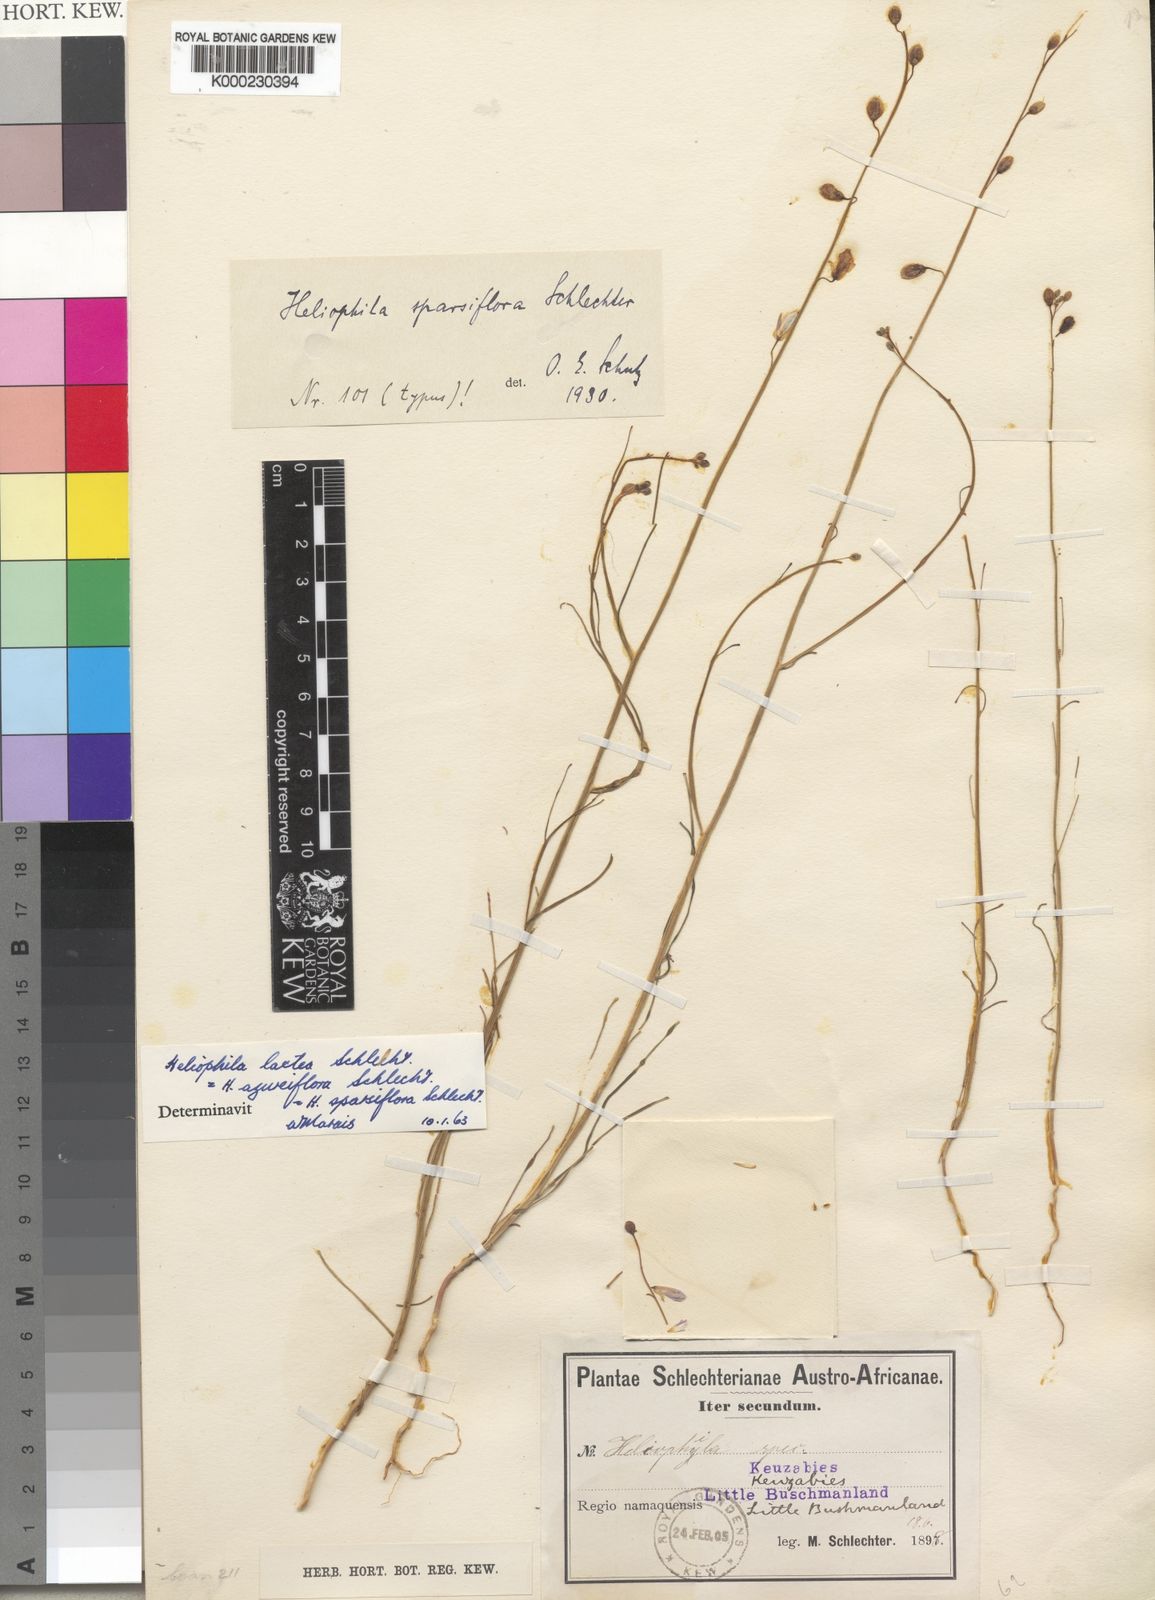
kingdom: Plantae
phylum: Tracheophyta
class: Magnoliopsida
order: Brassicales
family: Brassicaceae
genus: Heliophila
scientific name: Heliophila lactea
